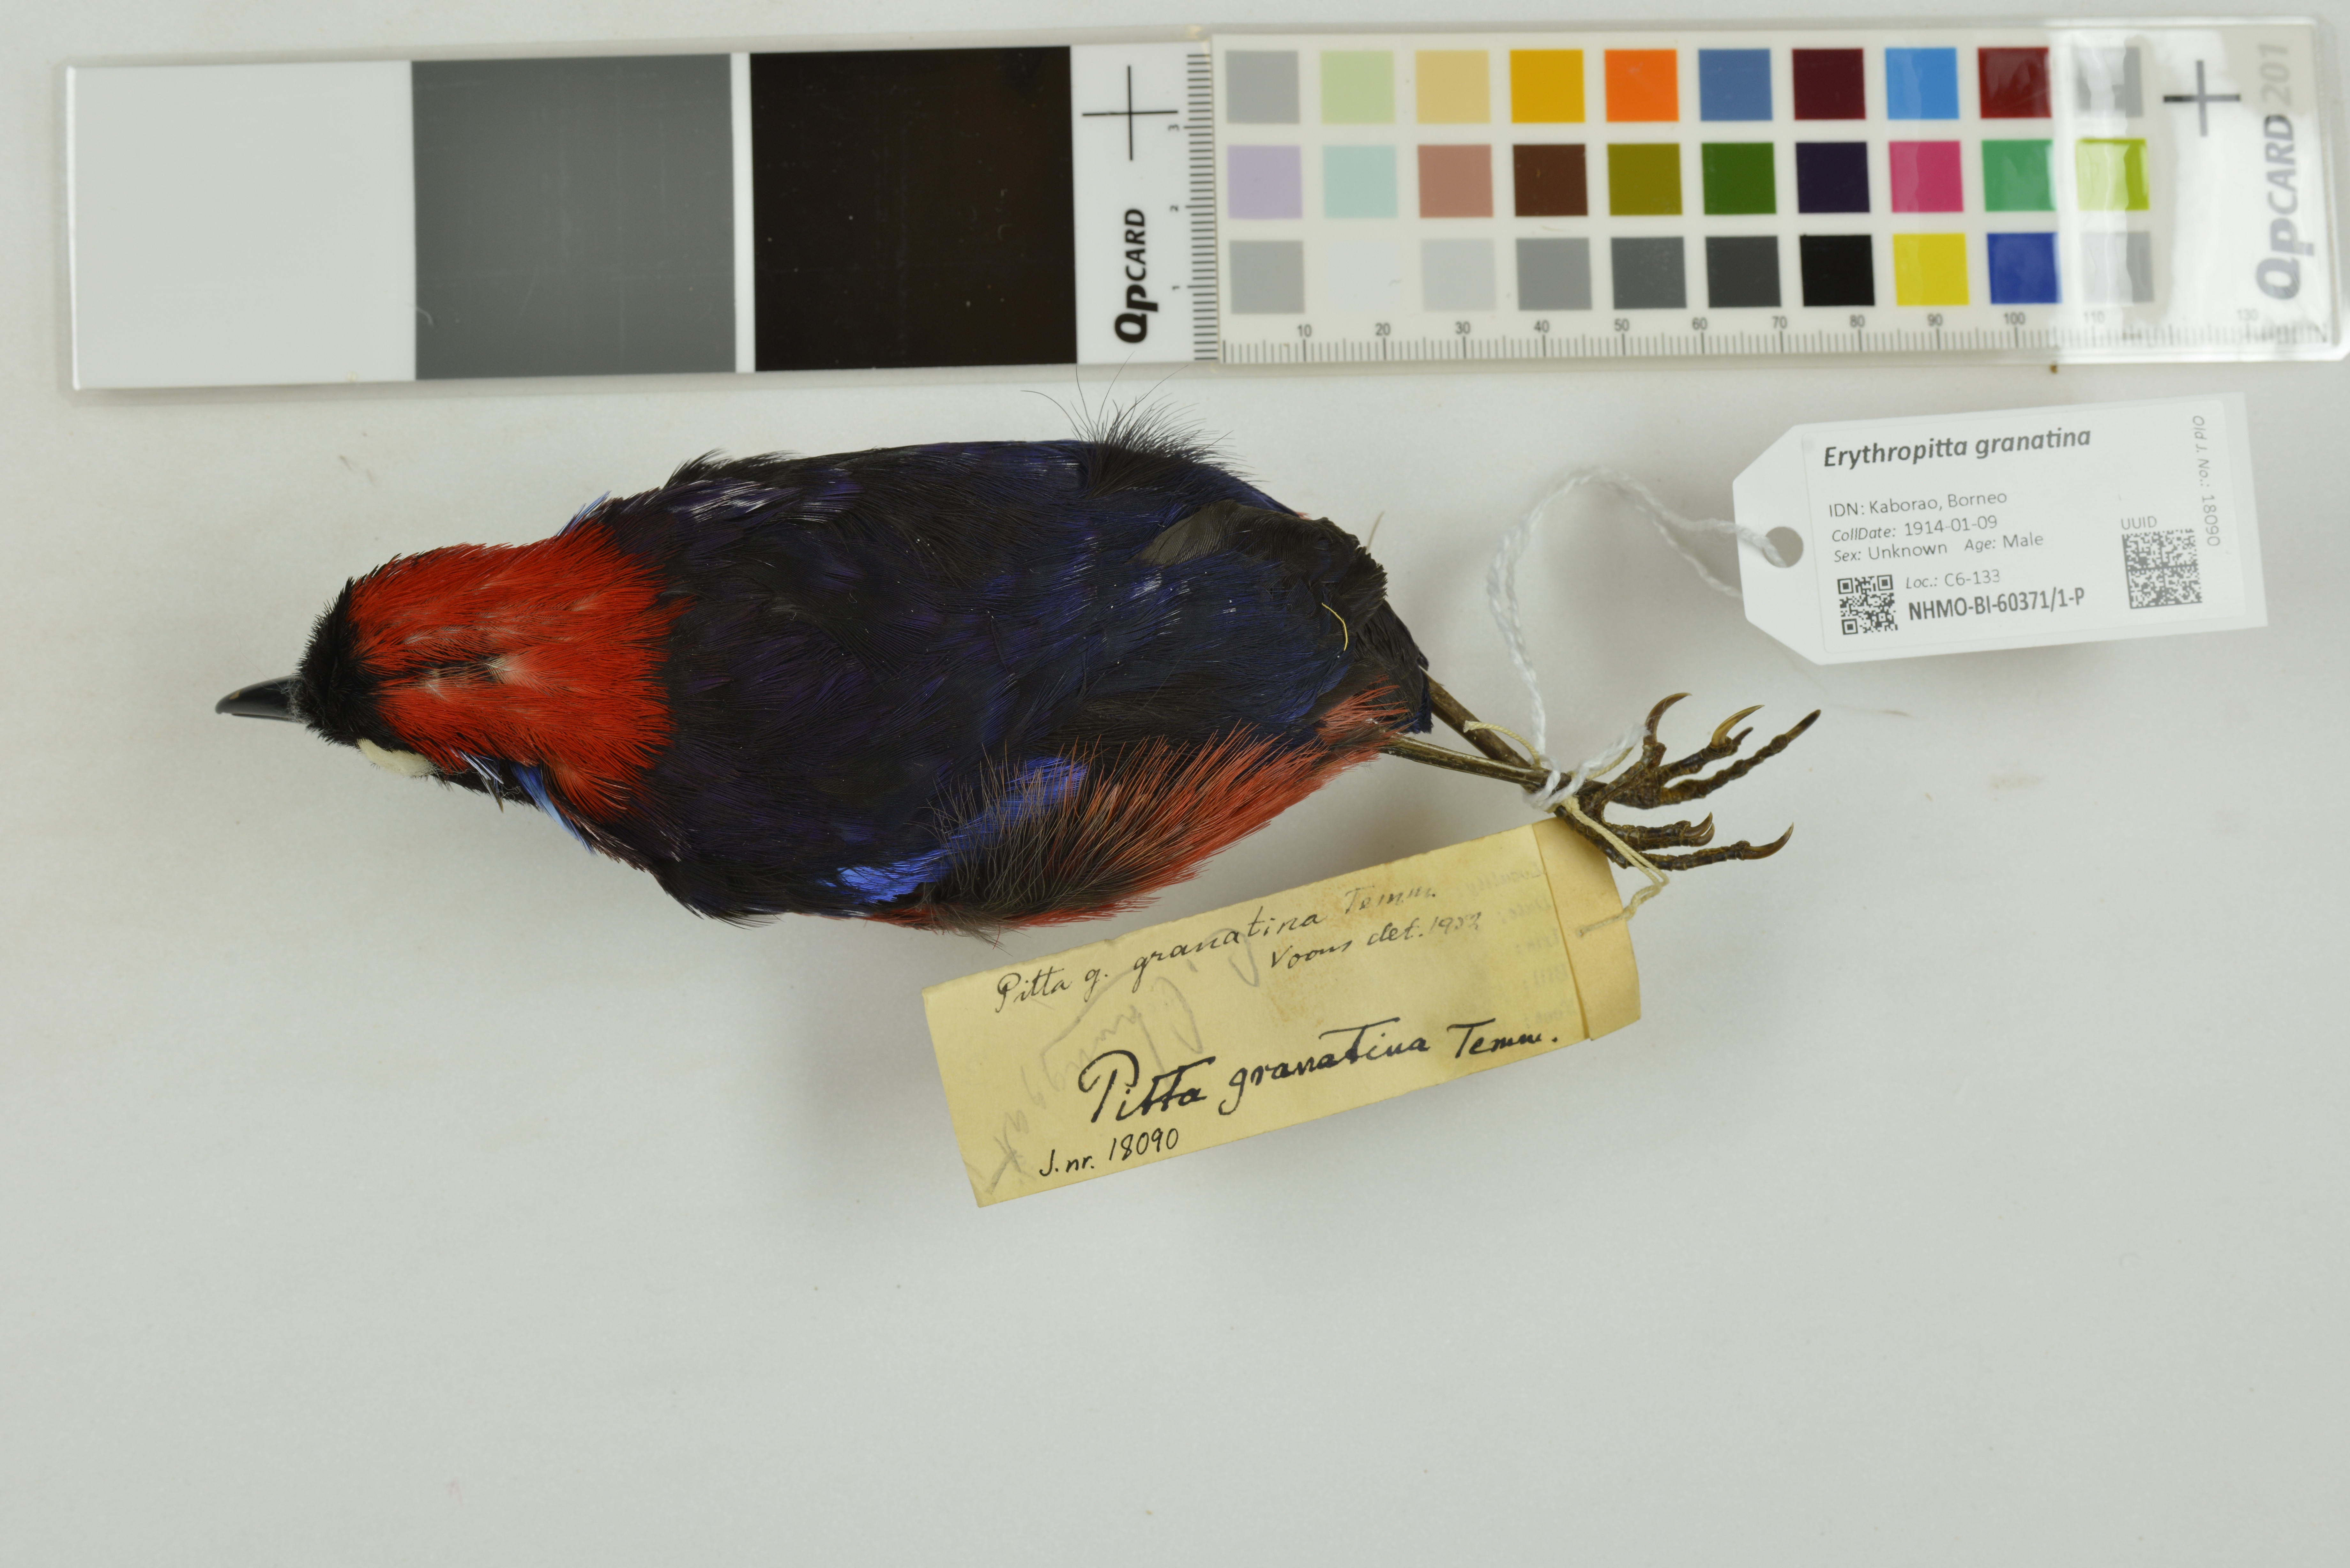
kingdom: Animalia
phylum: Chordata
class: Aves
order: Passeriformes
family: Pittidae
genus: Pitta
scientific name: Pitta granatina
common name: Garnet pitta
